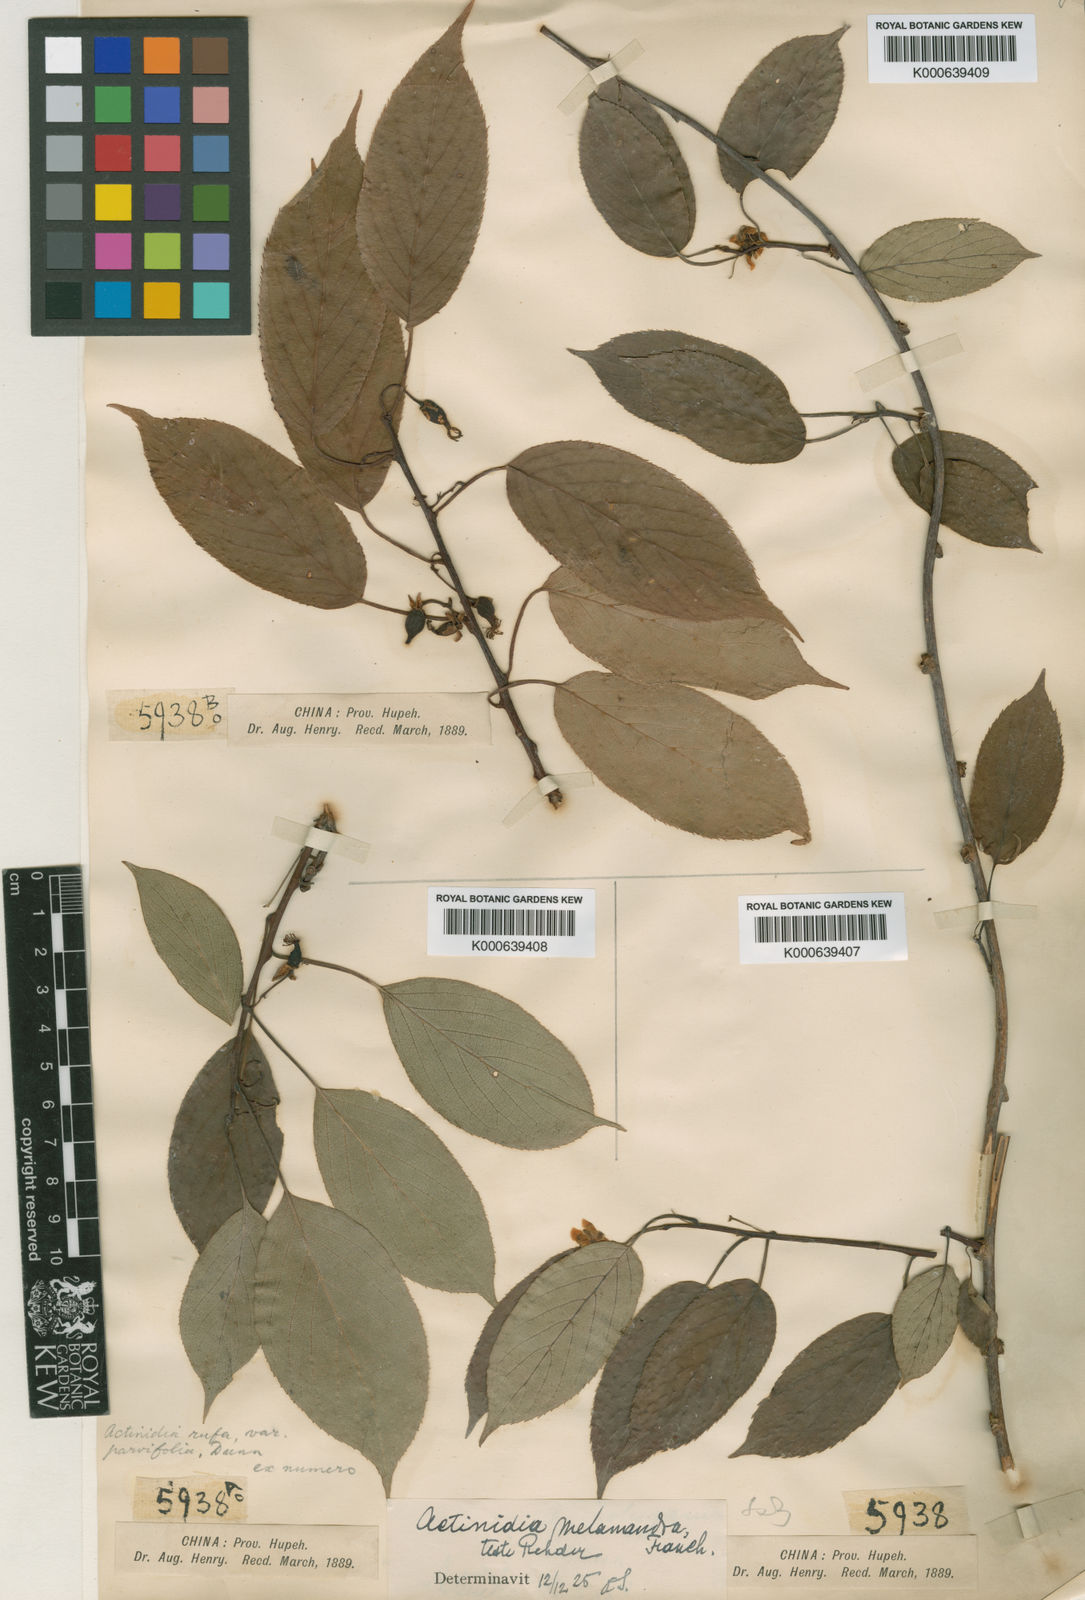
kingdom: Plantae
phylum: Tracheophyta
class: Magnoliopsida
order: Ericales
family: Actinidiaceae
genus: Actinidia
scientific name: Actinidia melanandra
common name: Red kiwi
